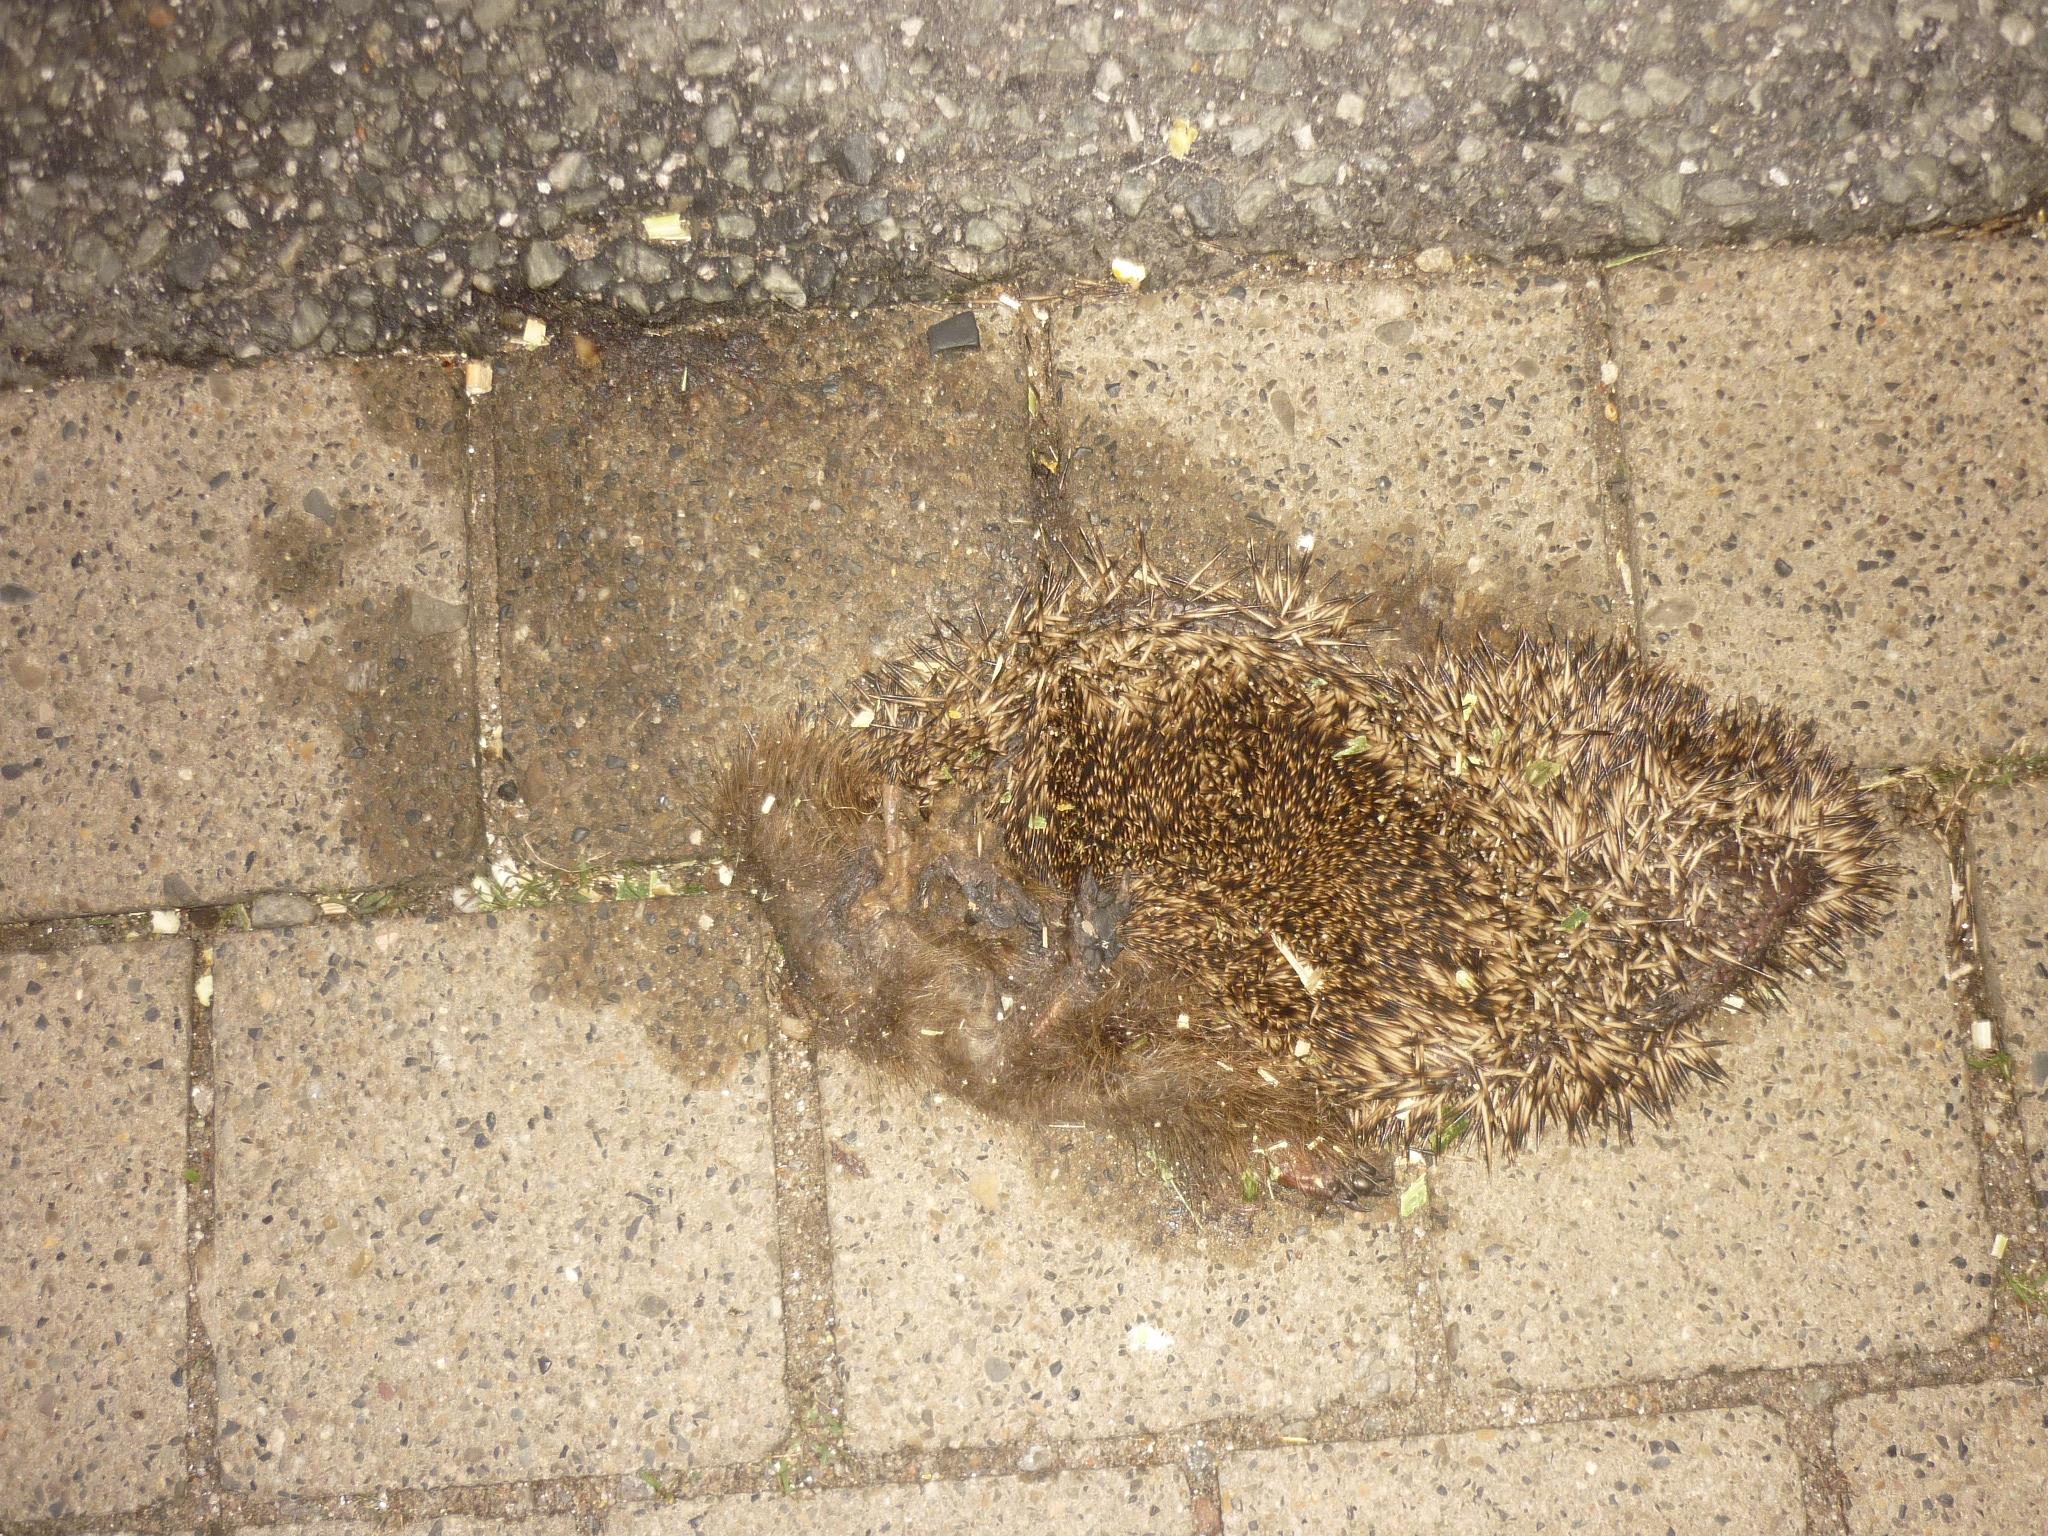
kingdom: Animalia
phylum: Chordata
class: Mammalia
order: Erinaceomorpha
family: Erinaceidae
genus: Erinaceus
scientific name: Erinaceus
